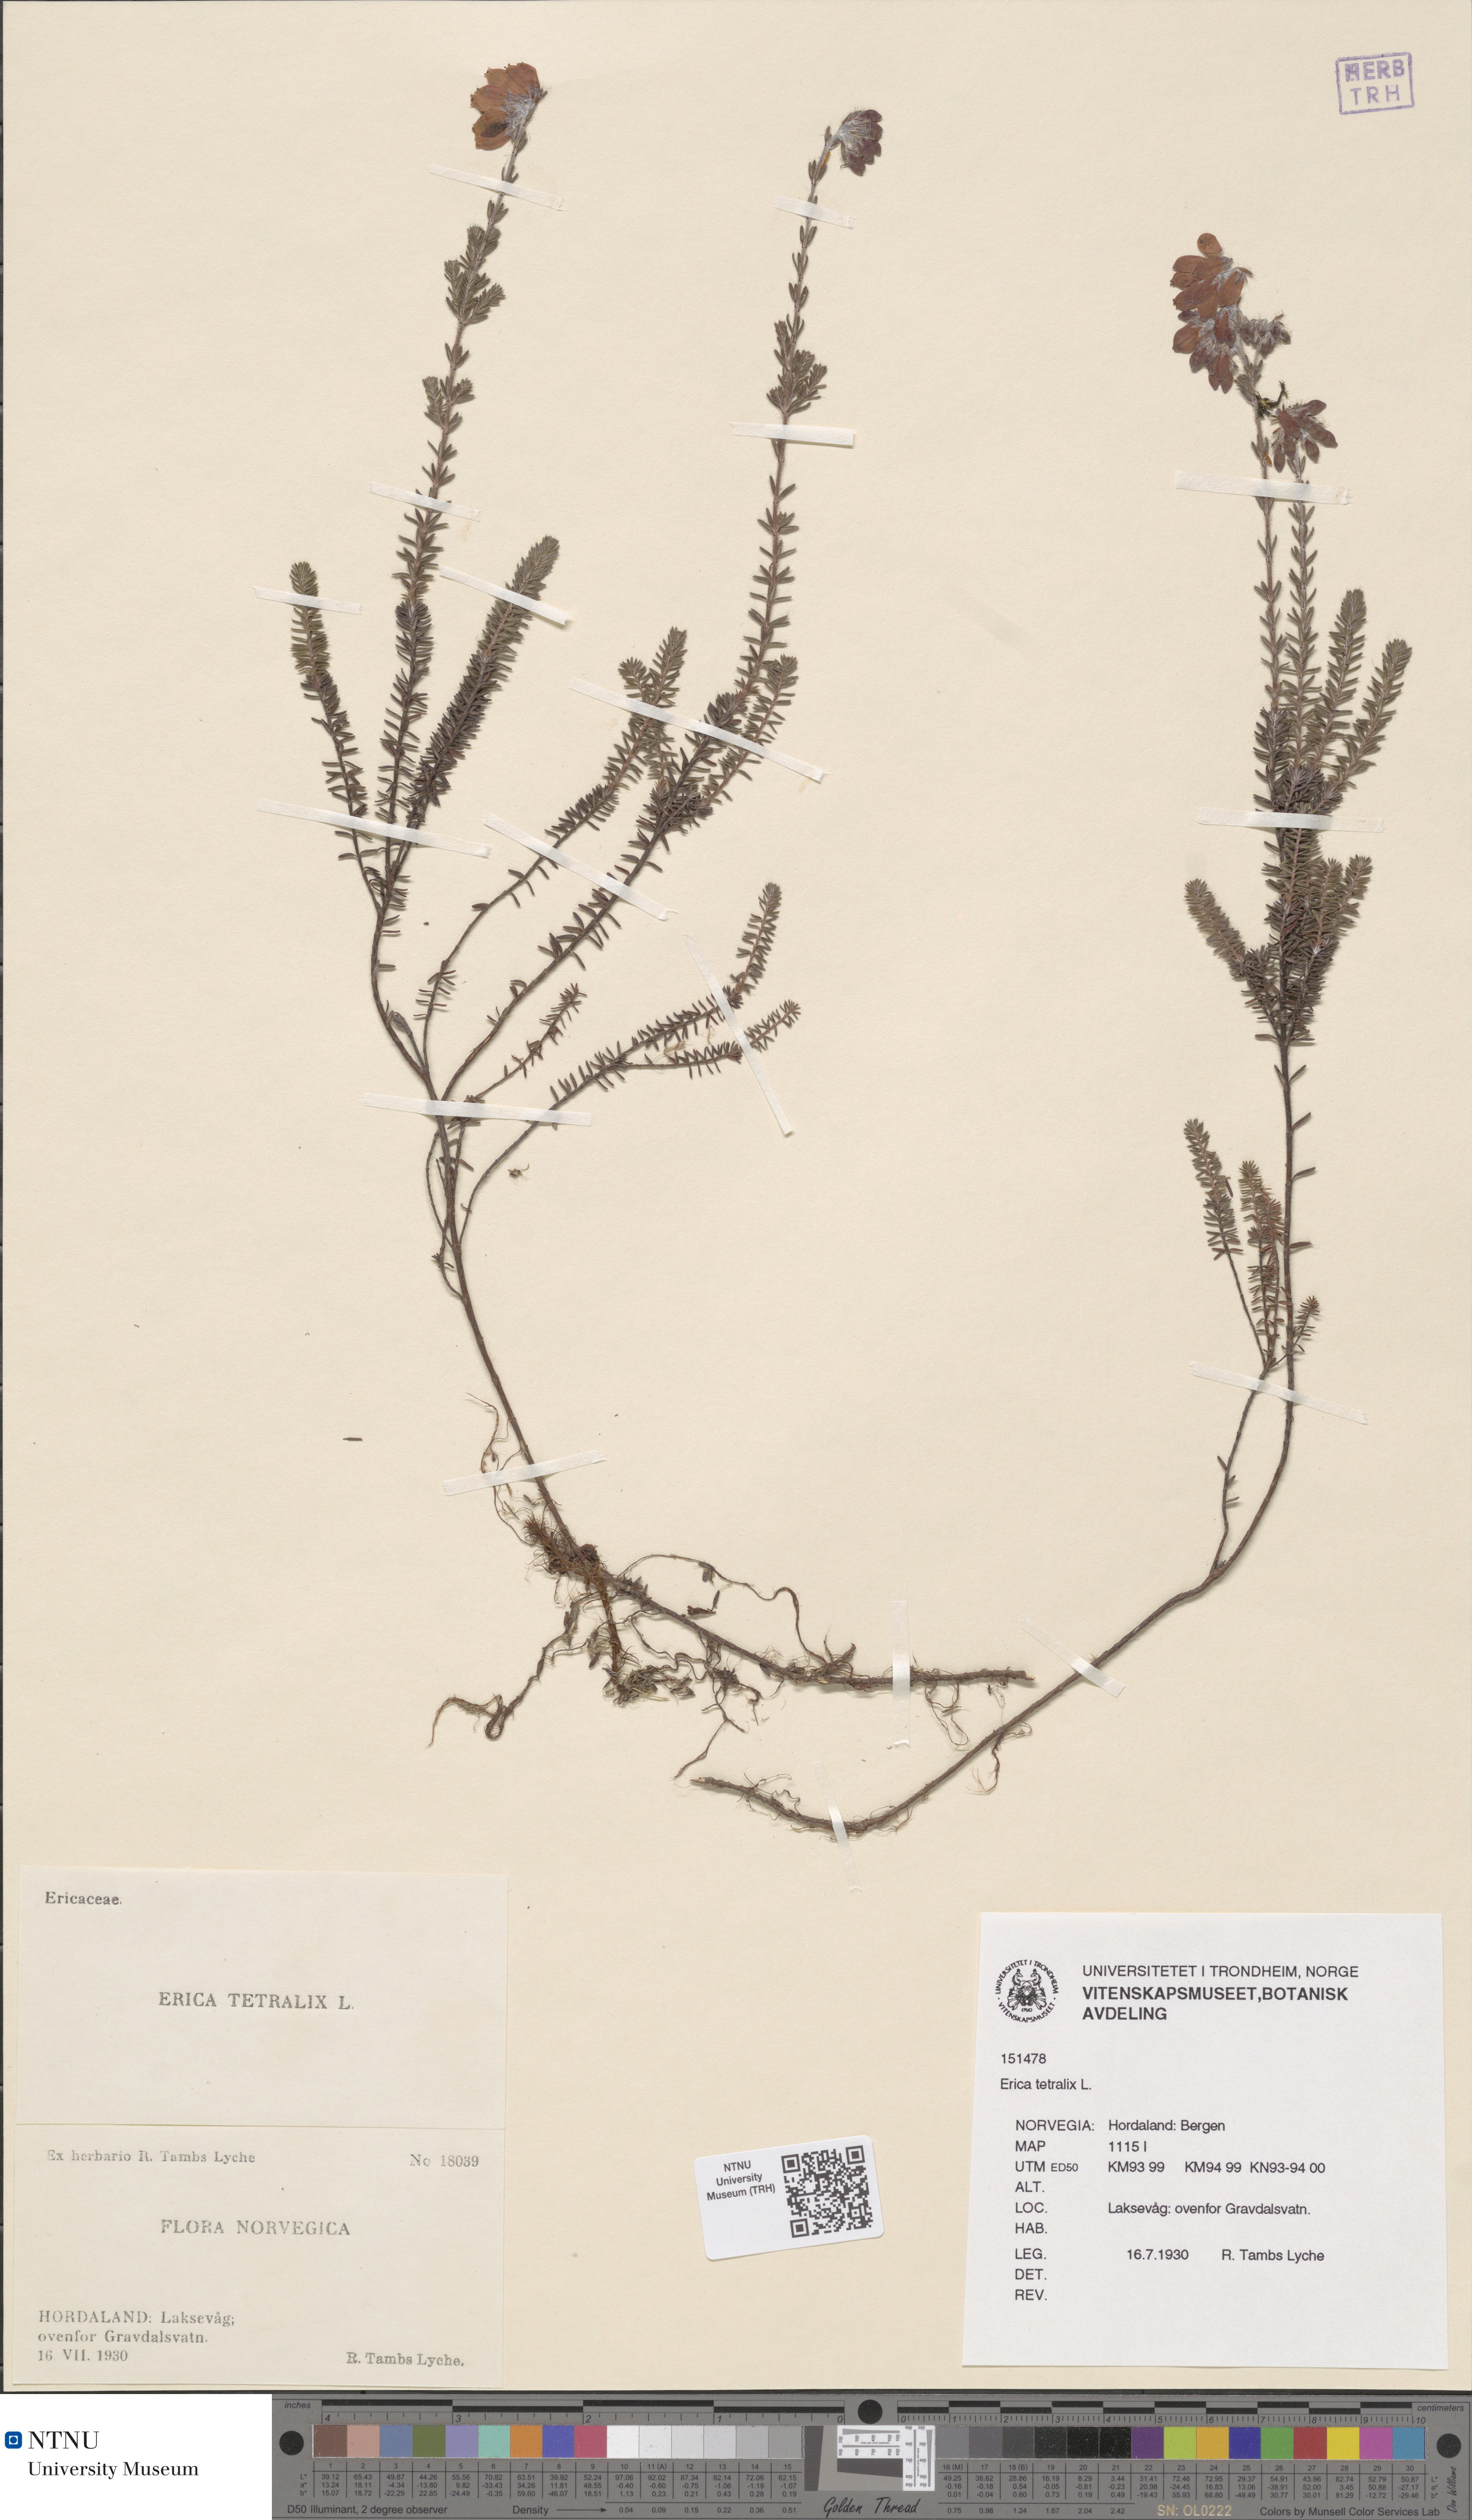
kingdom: Plantae
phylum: Tracheophyta
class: Magnoliopsida
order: Ericales
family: Ericaceae
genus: Erica
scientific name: Erica tetralix
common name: Cross-leaved heath
